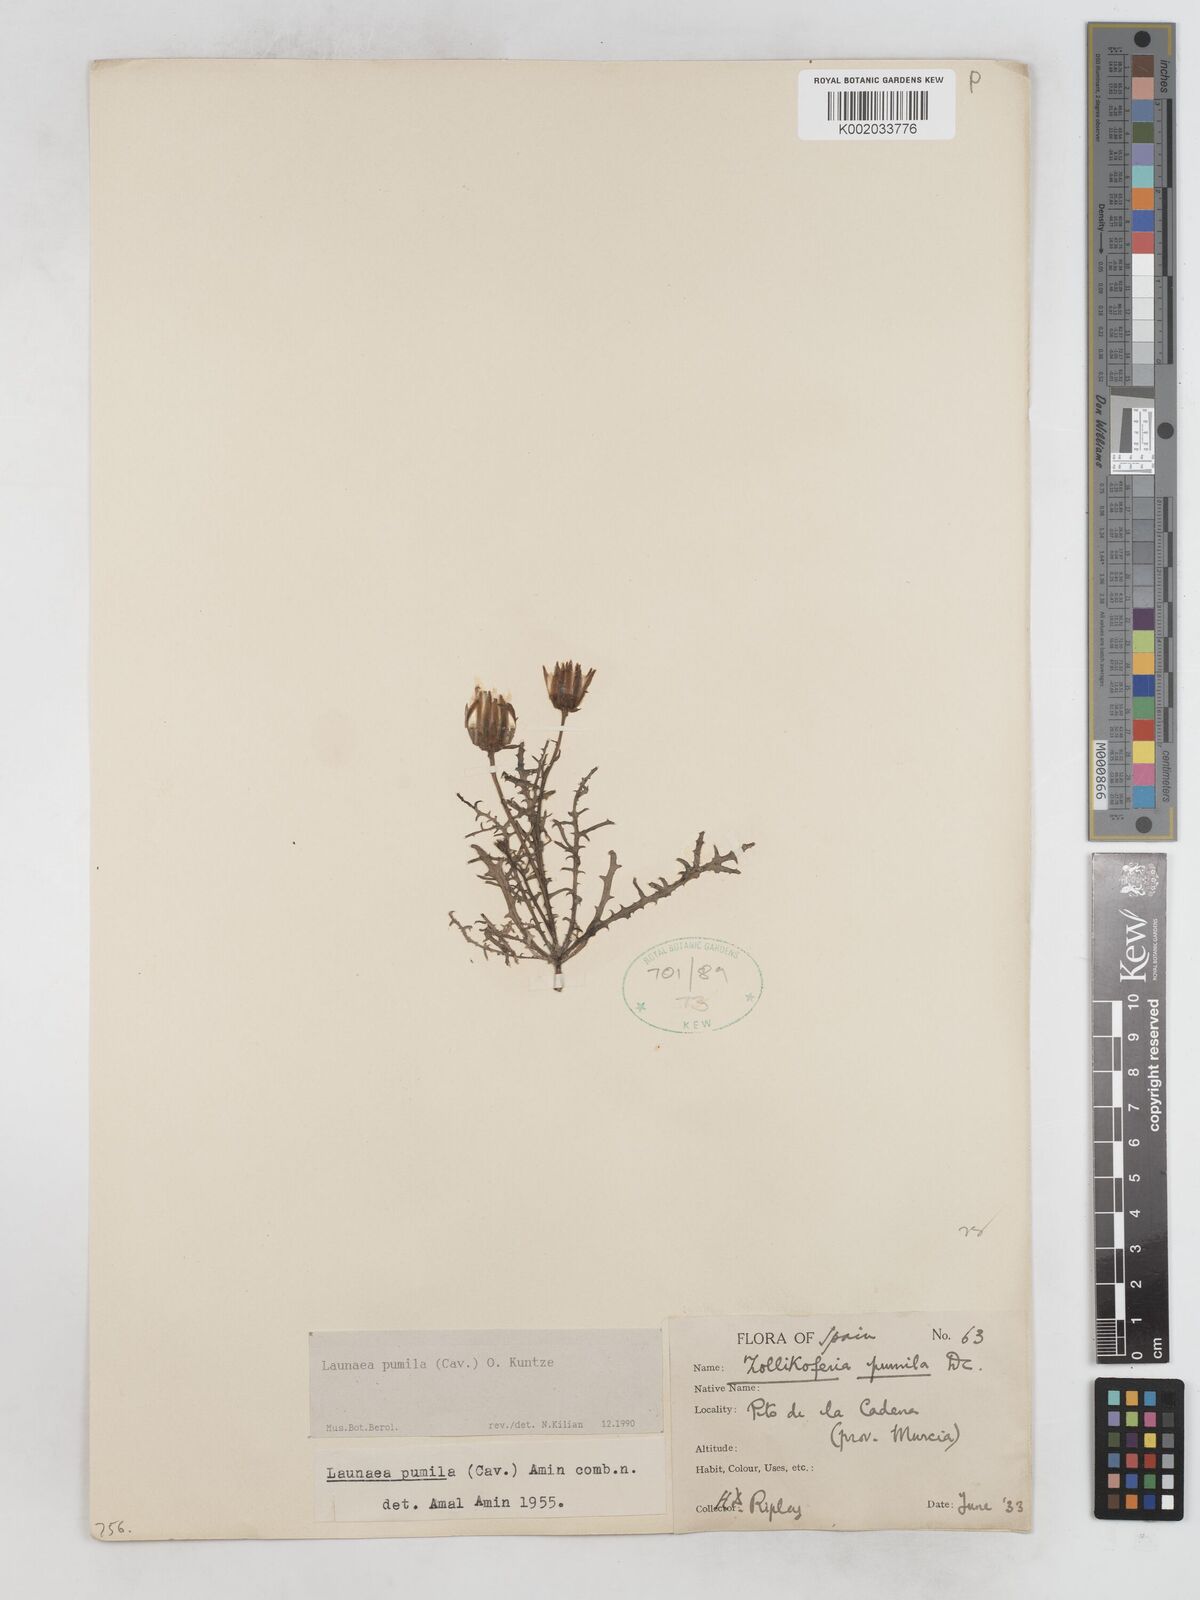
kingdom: Plantae
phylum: Tracheophyta
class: Magnoliopsida
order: Asterales
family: Asteraceae
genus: Launaea
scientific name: Launaea pumila
